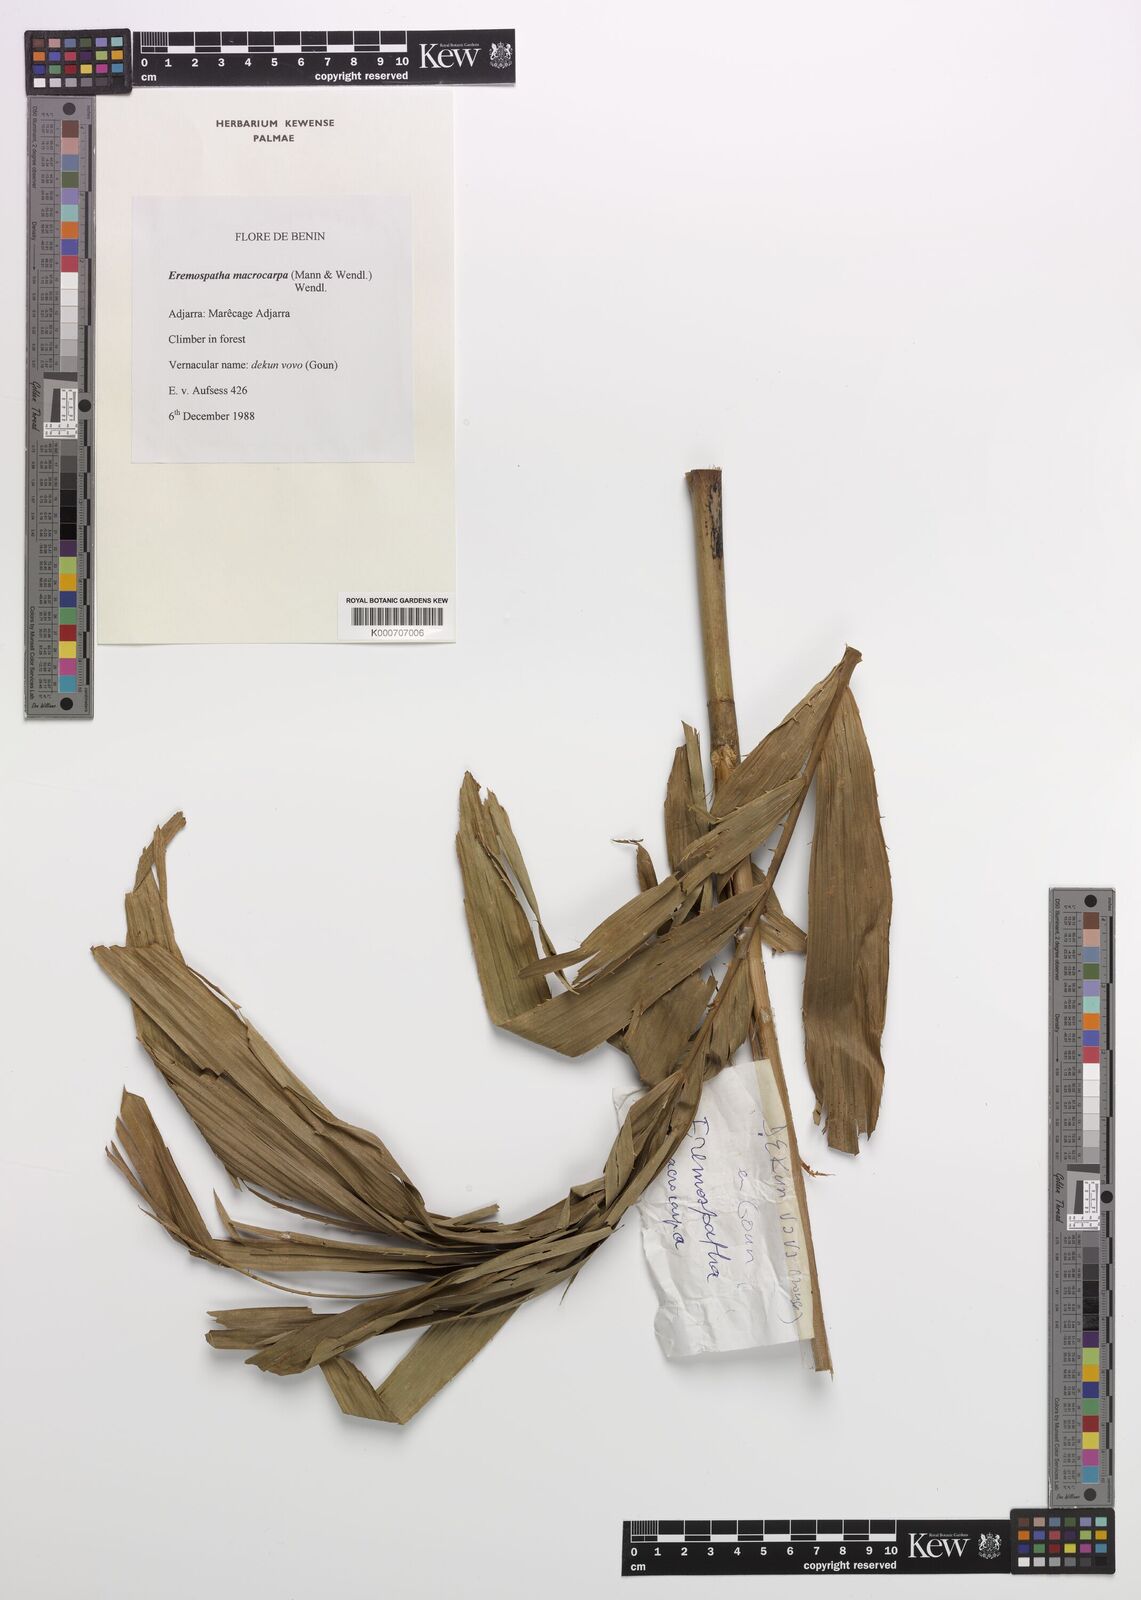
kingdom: Plantae
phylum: Tracheophyta
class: Liliopsida
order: Arecales
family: Arecaceae
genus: Eremospatha
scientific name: Eremospatha macrocarpa
